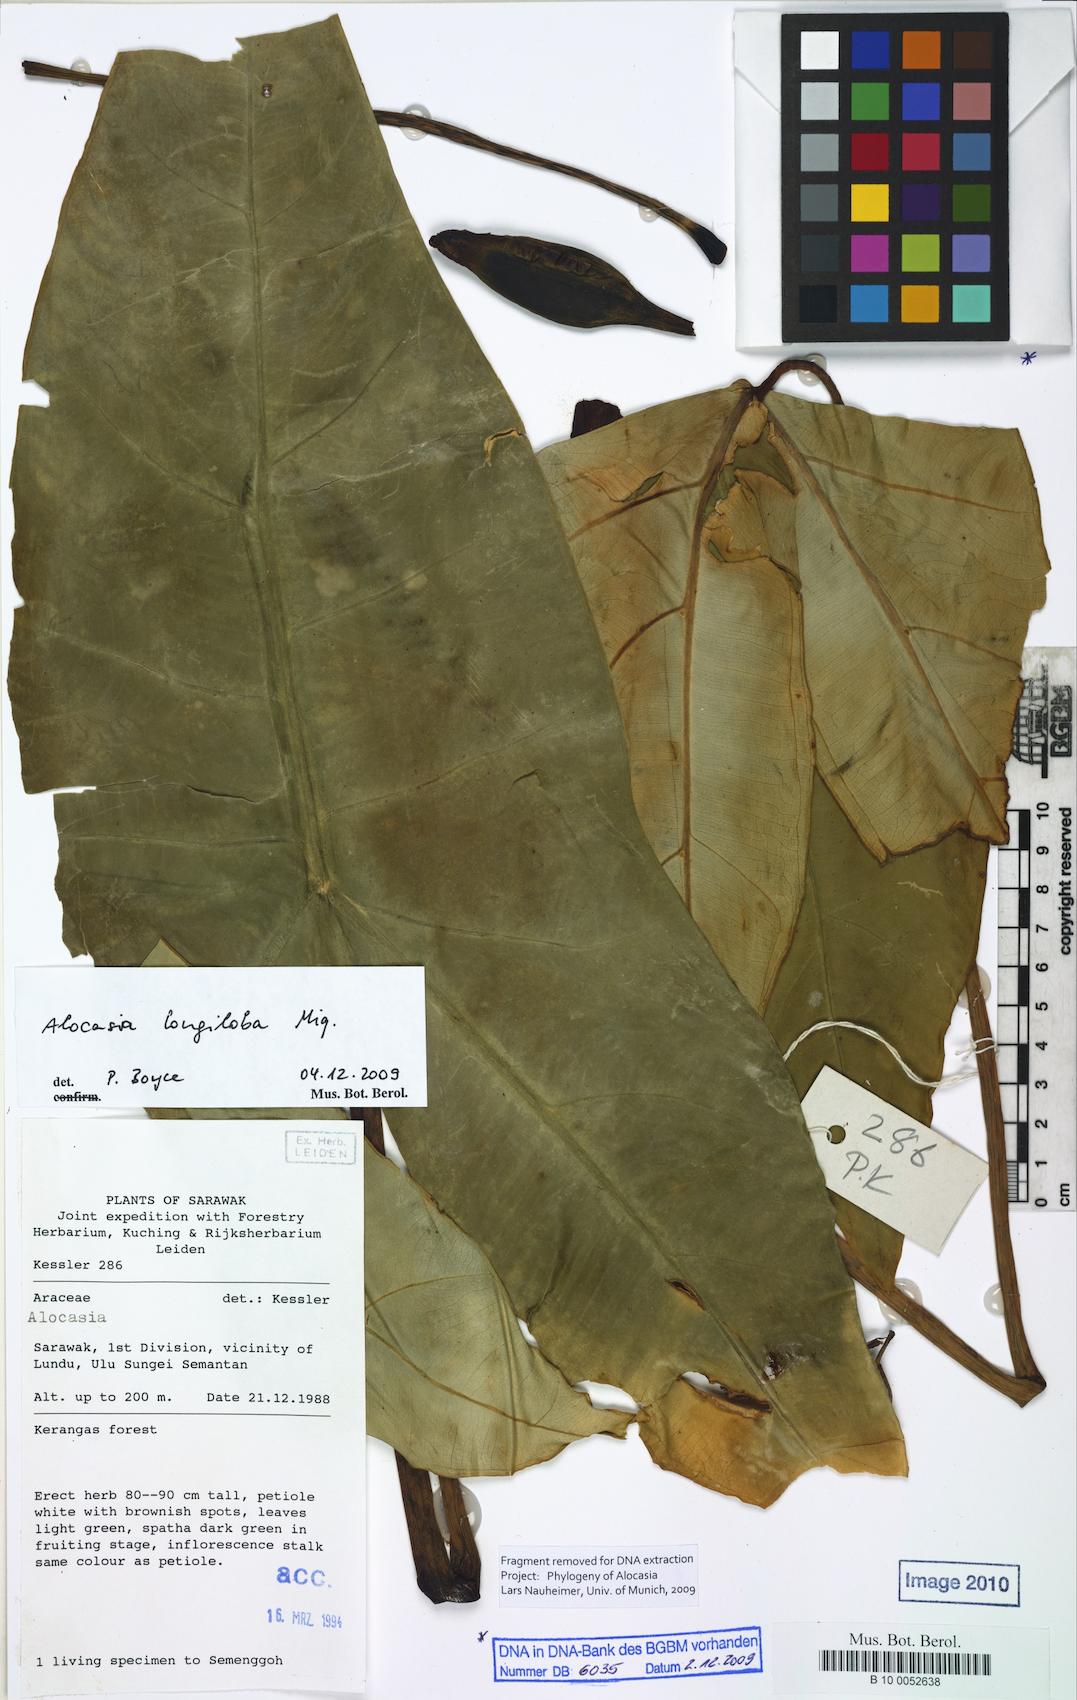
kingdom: Plantae
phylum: Tracheophyta
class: Liliopsida
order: Alismatales
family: Araceae
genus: Alocasia
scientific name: Alocasia longiloba
